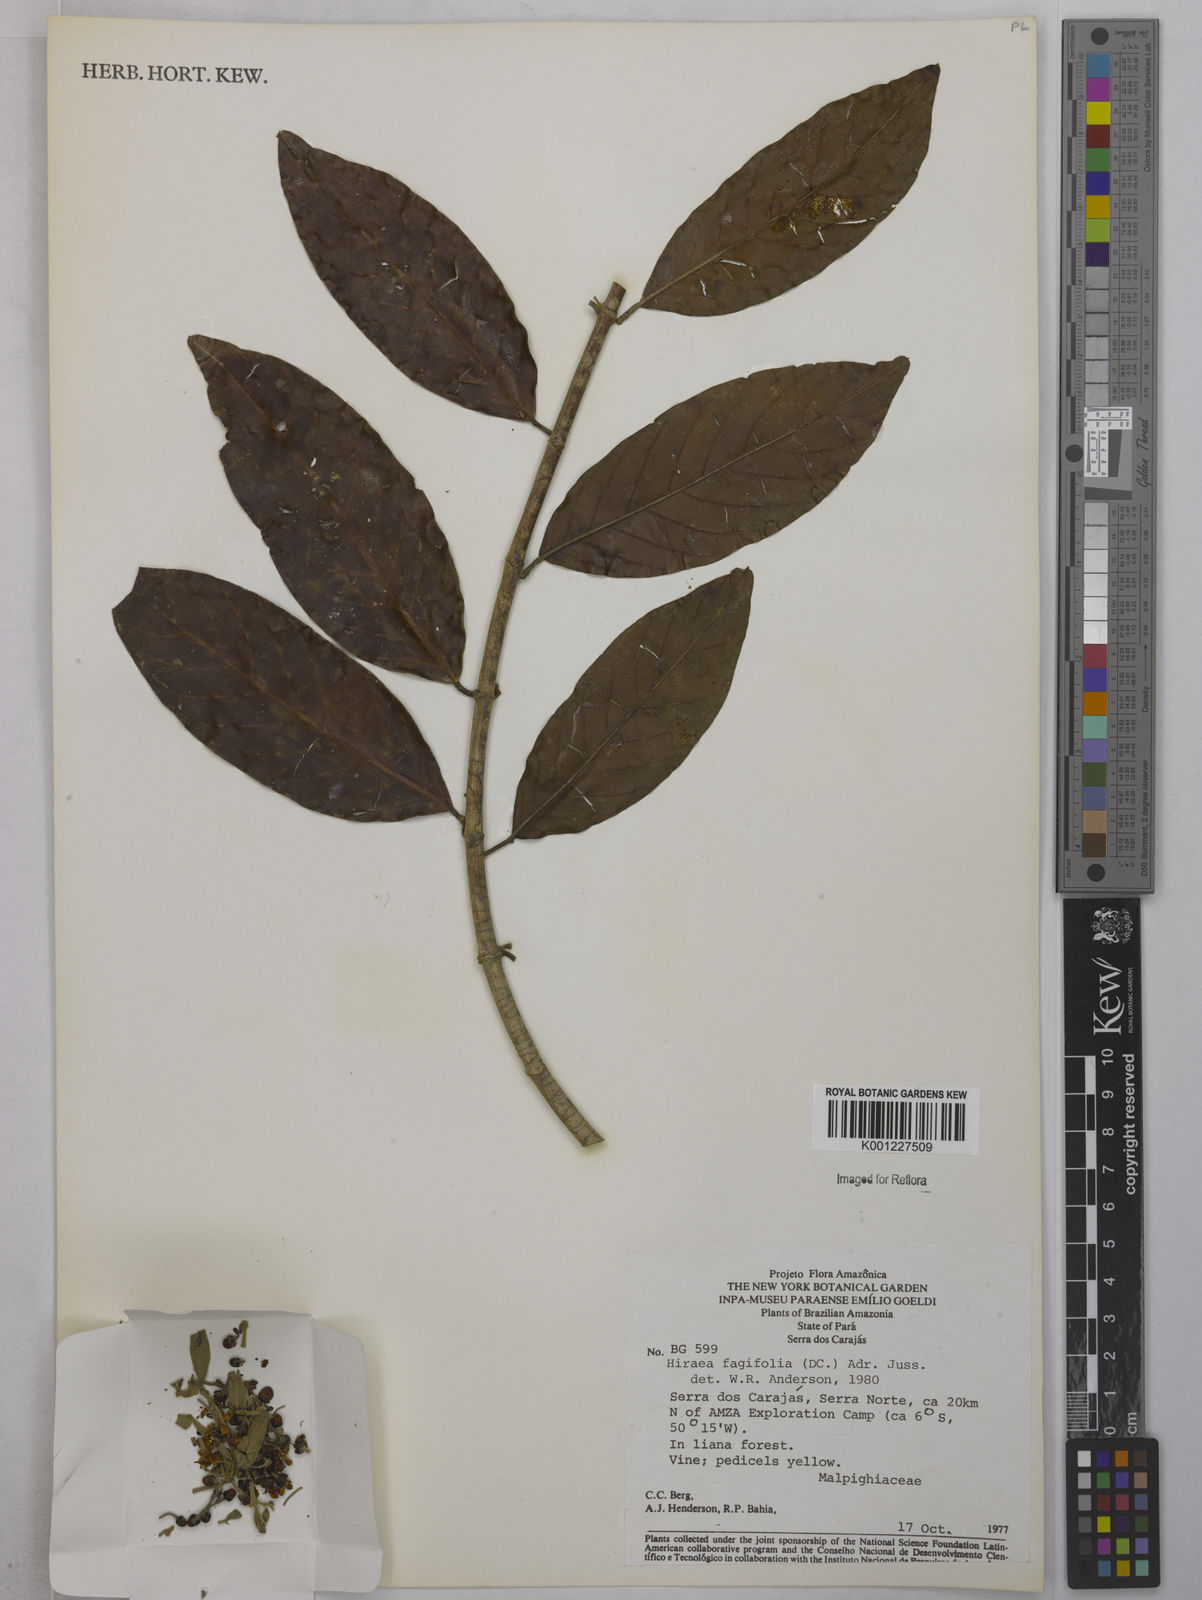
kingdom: Plantae
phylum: Tracheophyta
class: Magnoliopsida
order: Malpighiales
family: Malpighiaceae
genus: Hiraea
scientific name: Hiraea fagifolia
